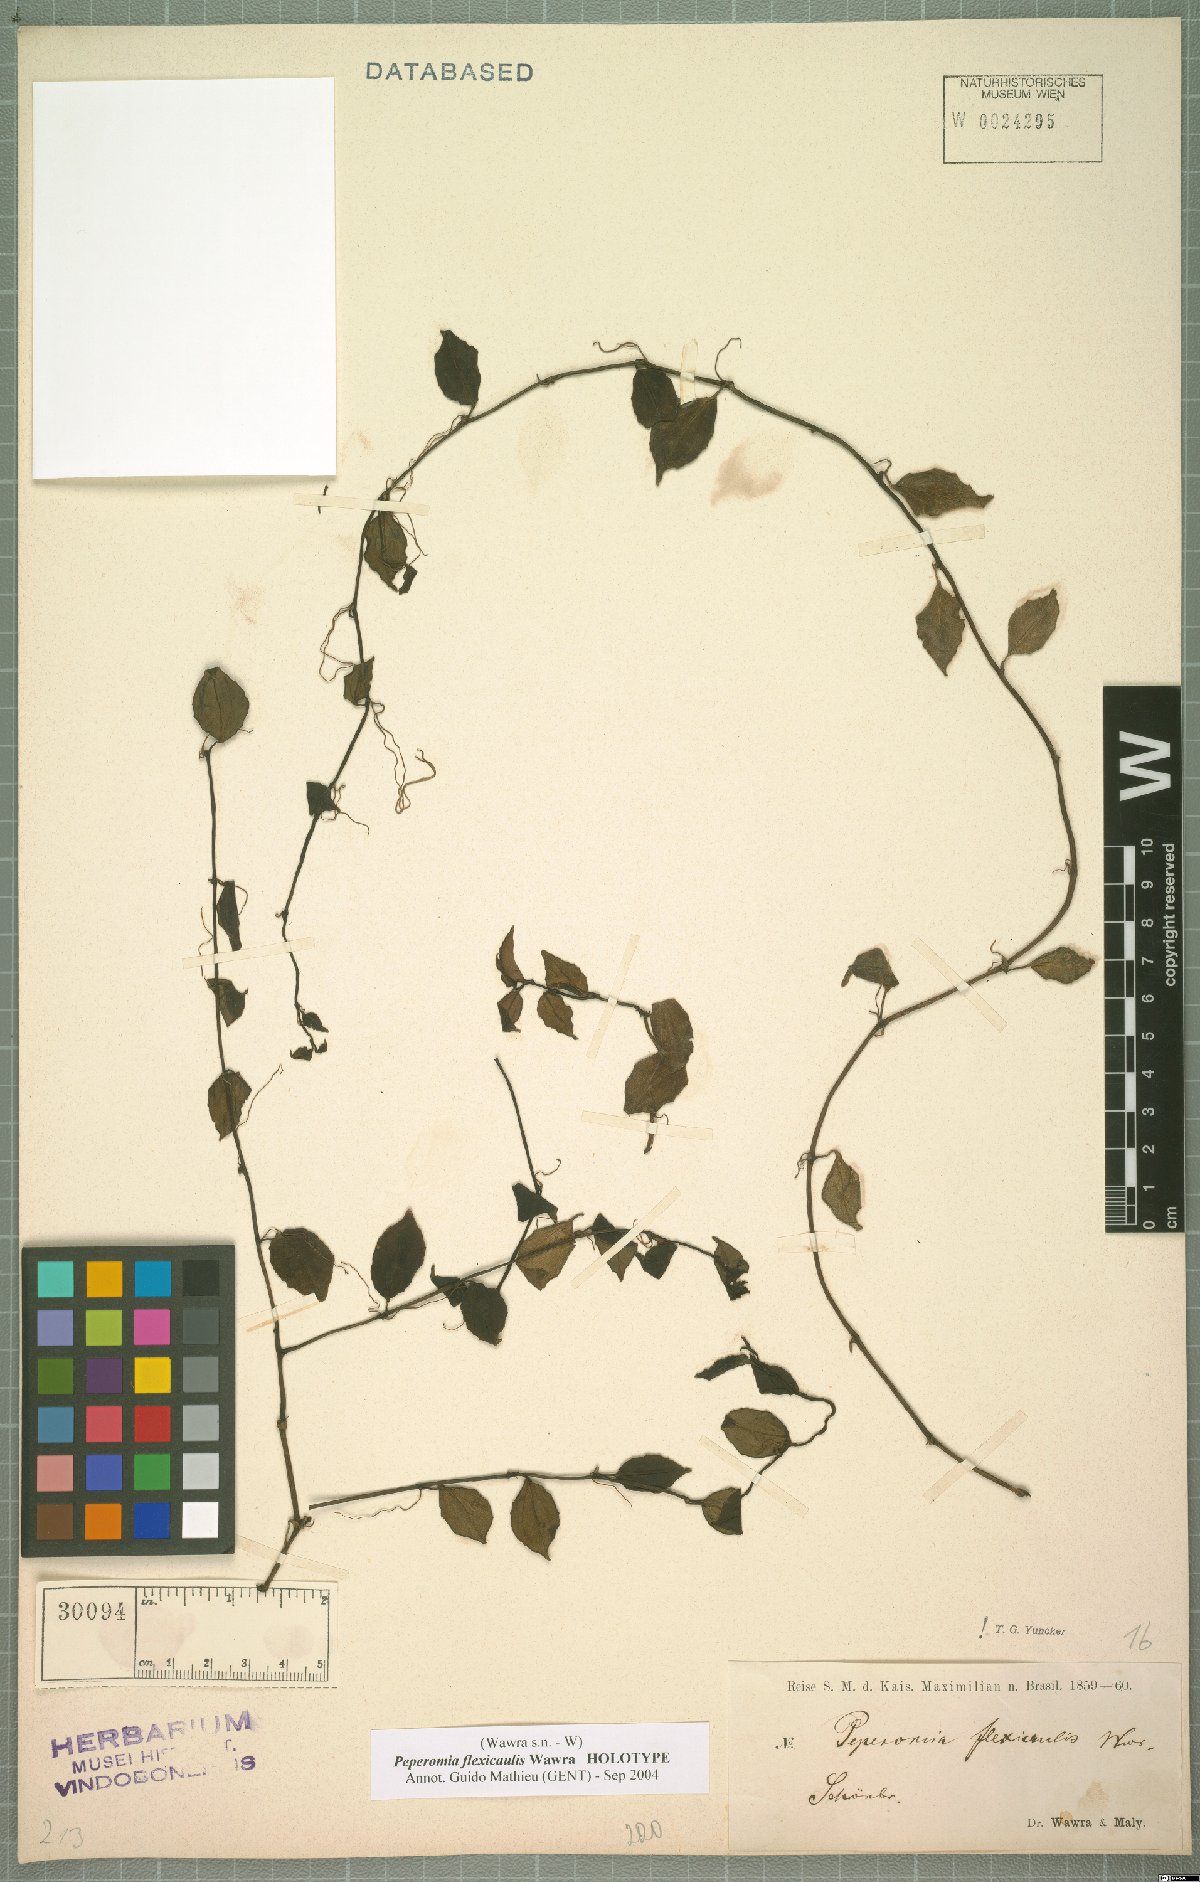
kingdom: Plantae
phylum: Tracheophyta
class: Magnoliopsida
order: Piperales
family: Piperaceae
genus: Peperomia
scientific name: Peperomia flexicaulis
